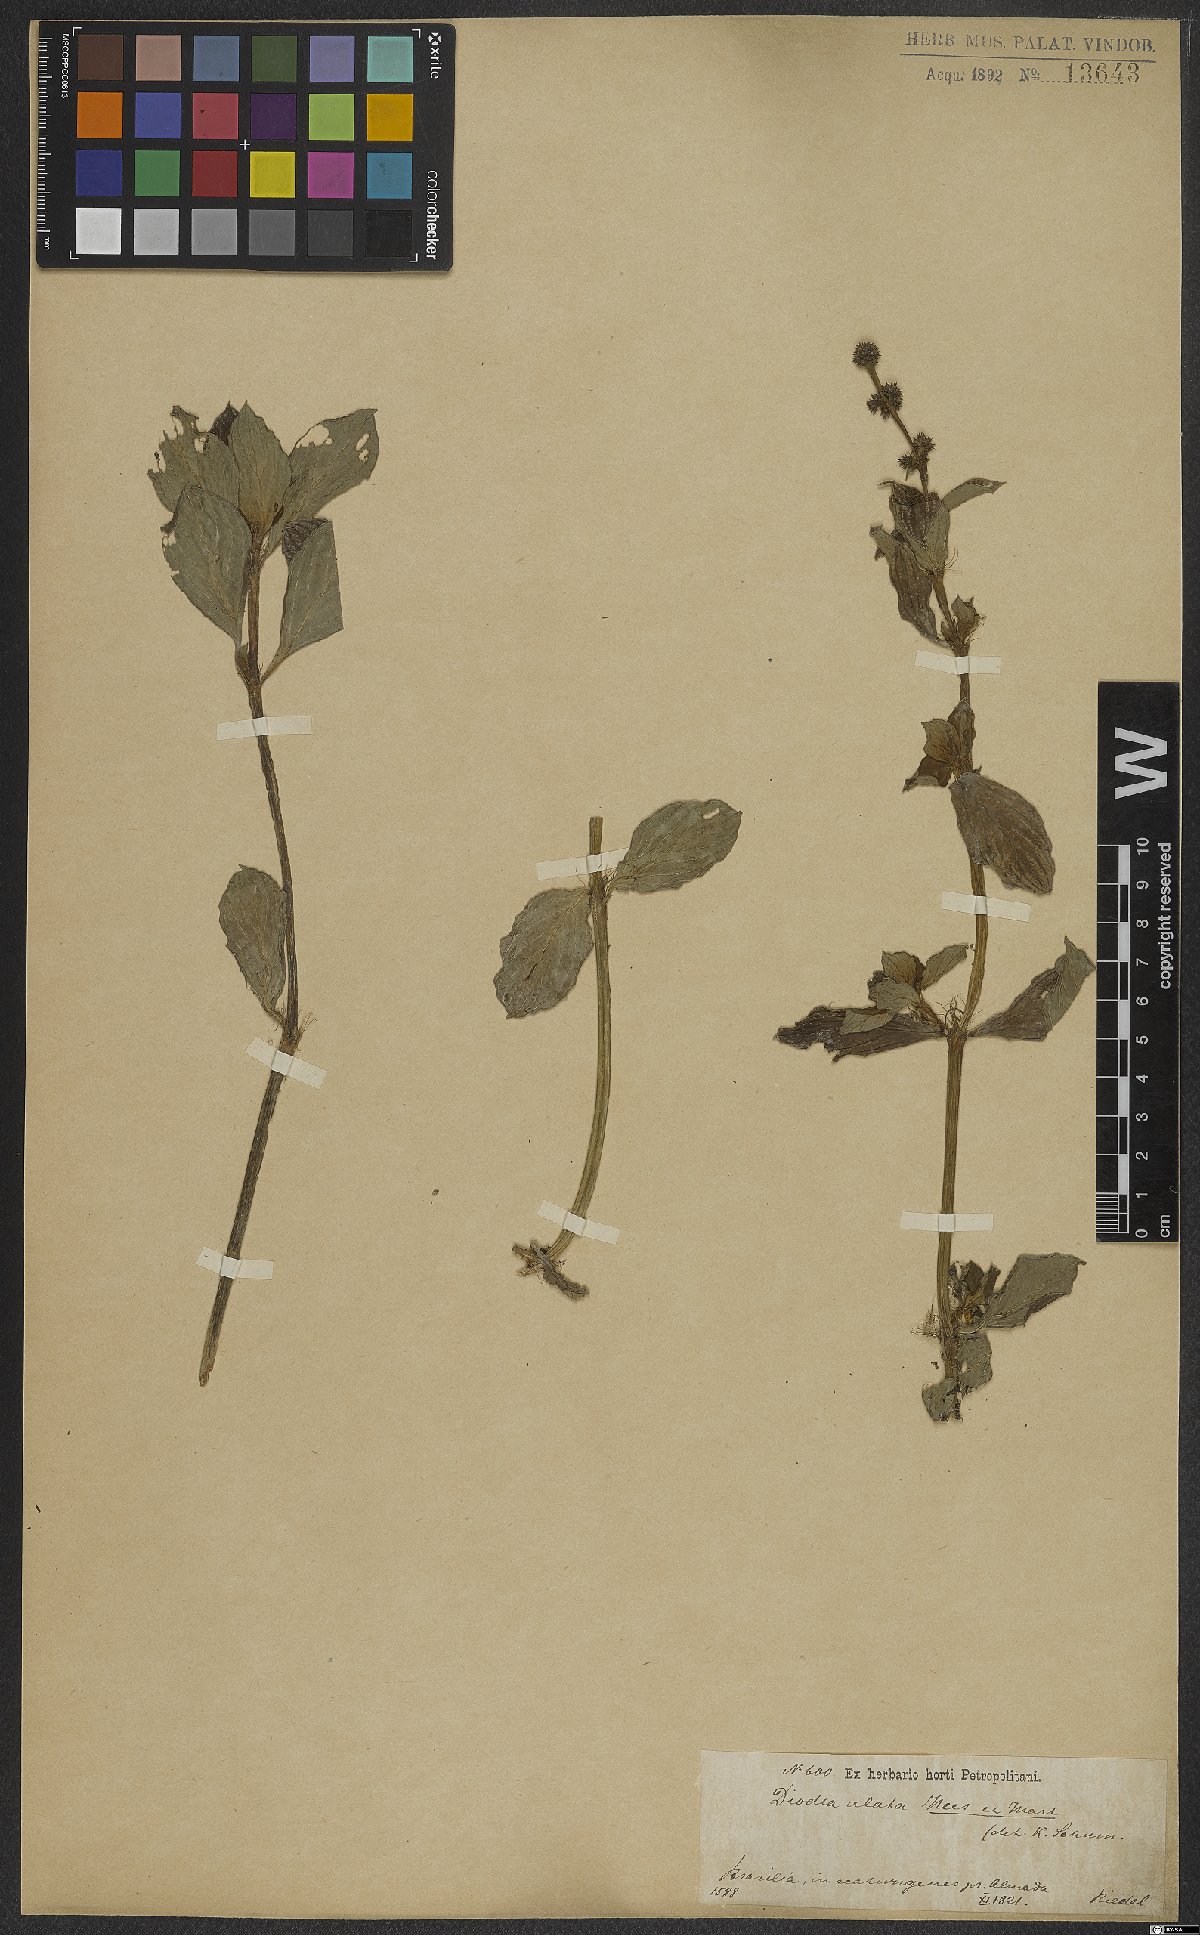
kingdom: Plantae
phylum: Tracheophyta
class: Magnoliopsida
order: Gentianales
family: Rubiaceae
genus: Galianthe
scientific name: Galianthe palustris
